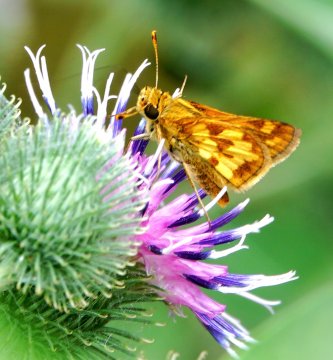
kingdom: Animalia
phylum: Arthropoda
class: Insecta
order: Lepidoptera
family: Hesperiidae
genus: Polites
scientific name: Polites coras
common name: Peck's Skipper
